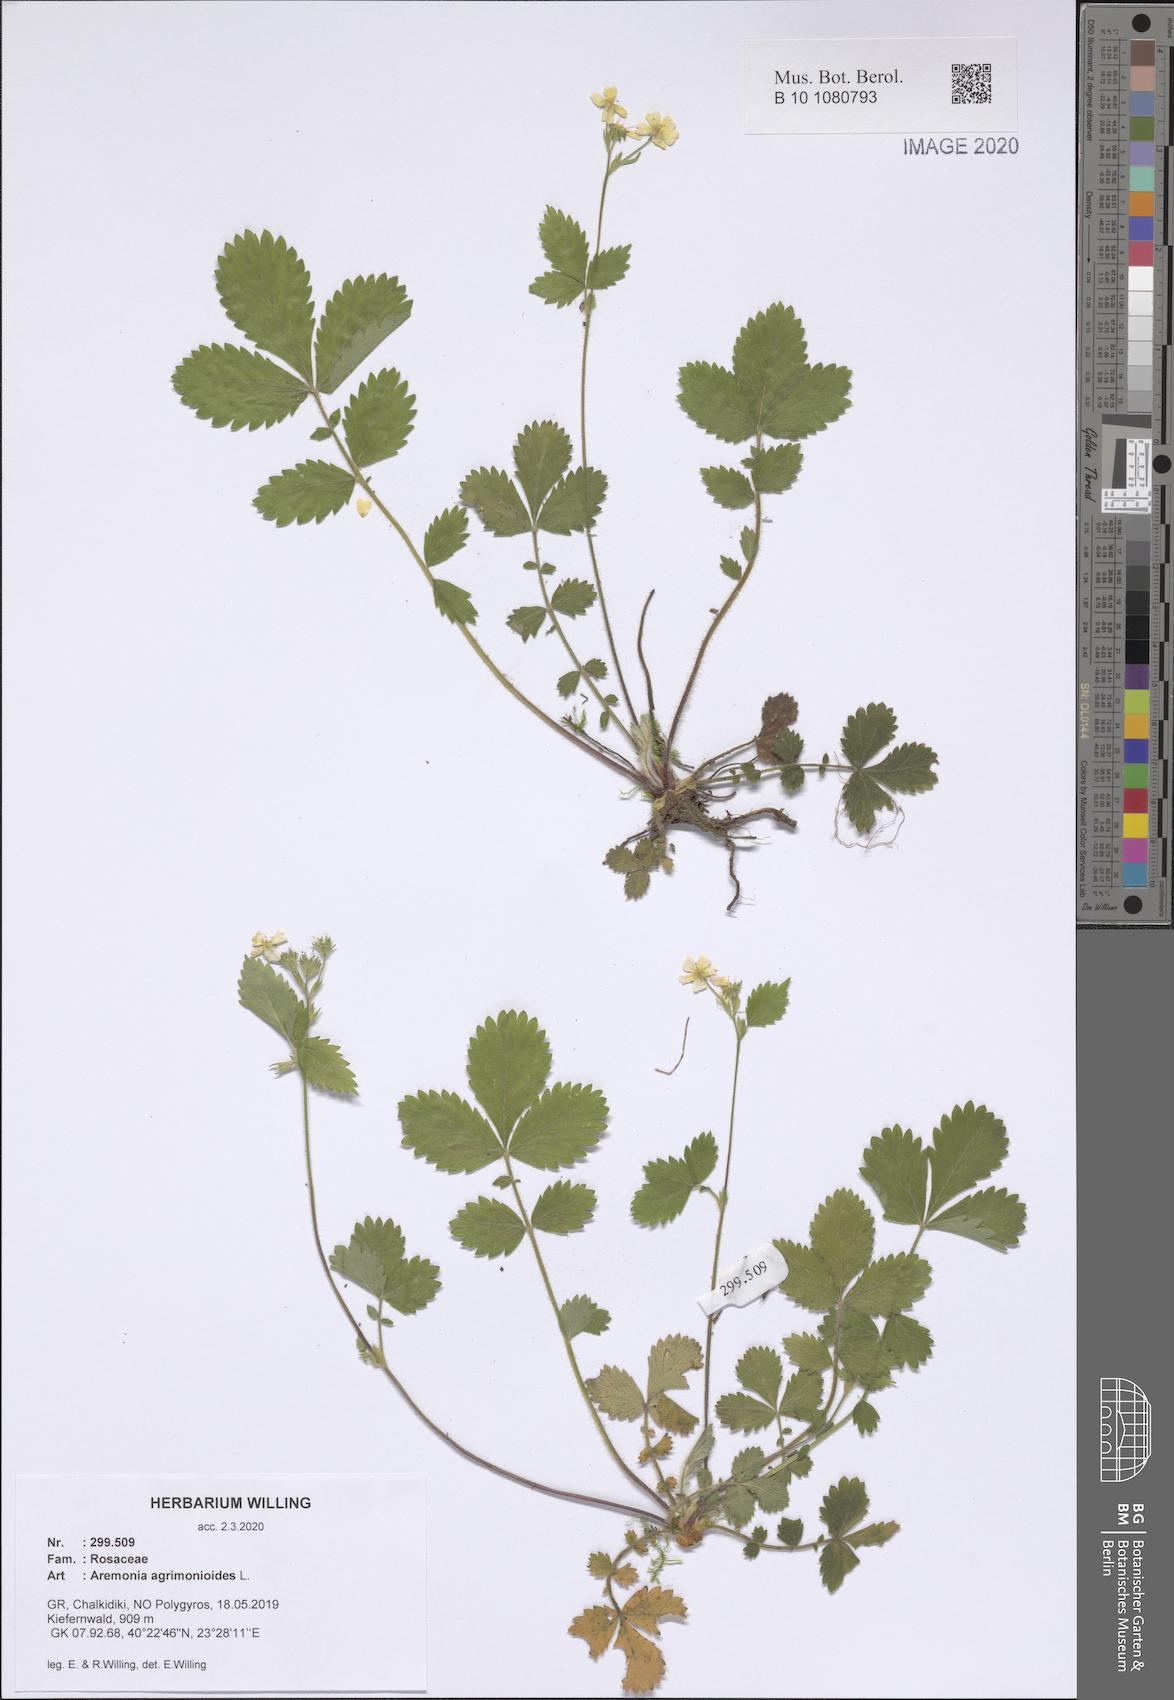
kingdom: Plantae
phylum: Tracheophyta
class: Magnoliopsida
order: Rosales
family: Rosaceae
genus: Aremonia
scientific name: Aremonia agrimonioides
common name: Bastard agrimony
